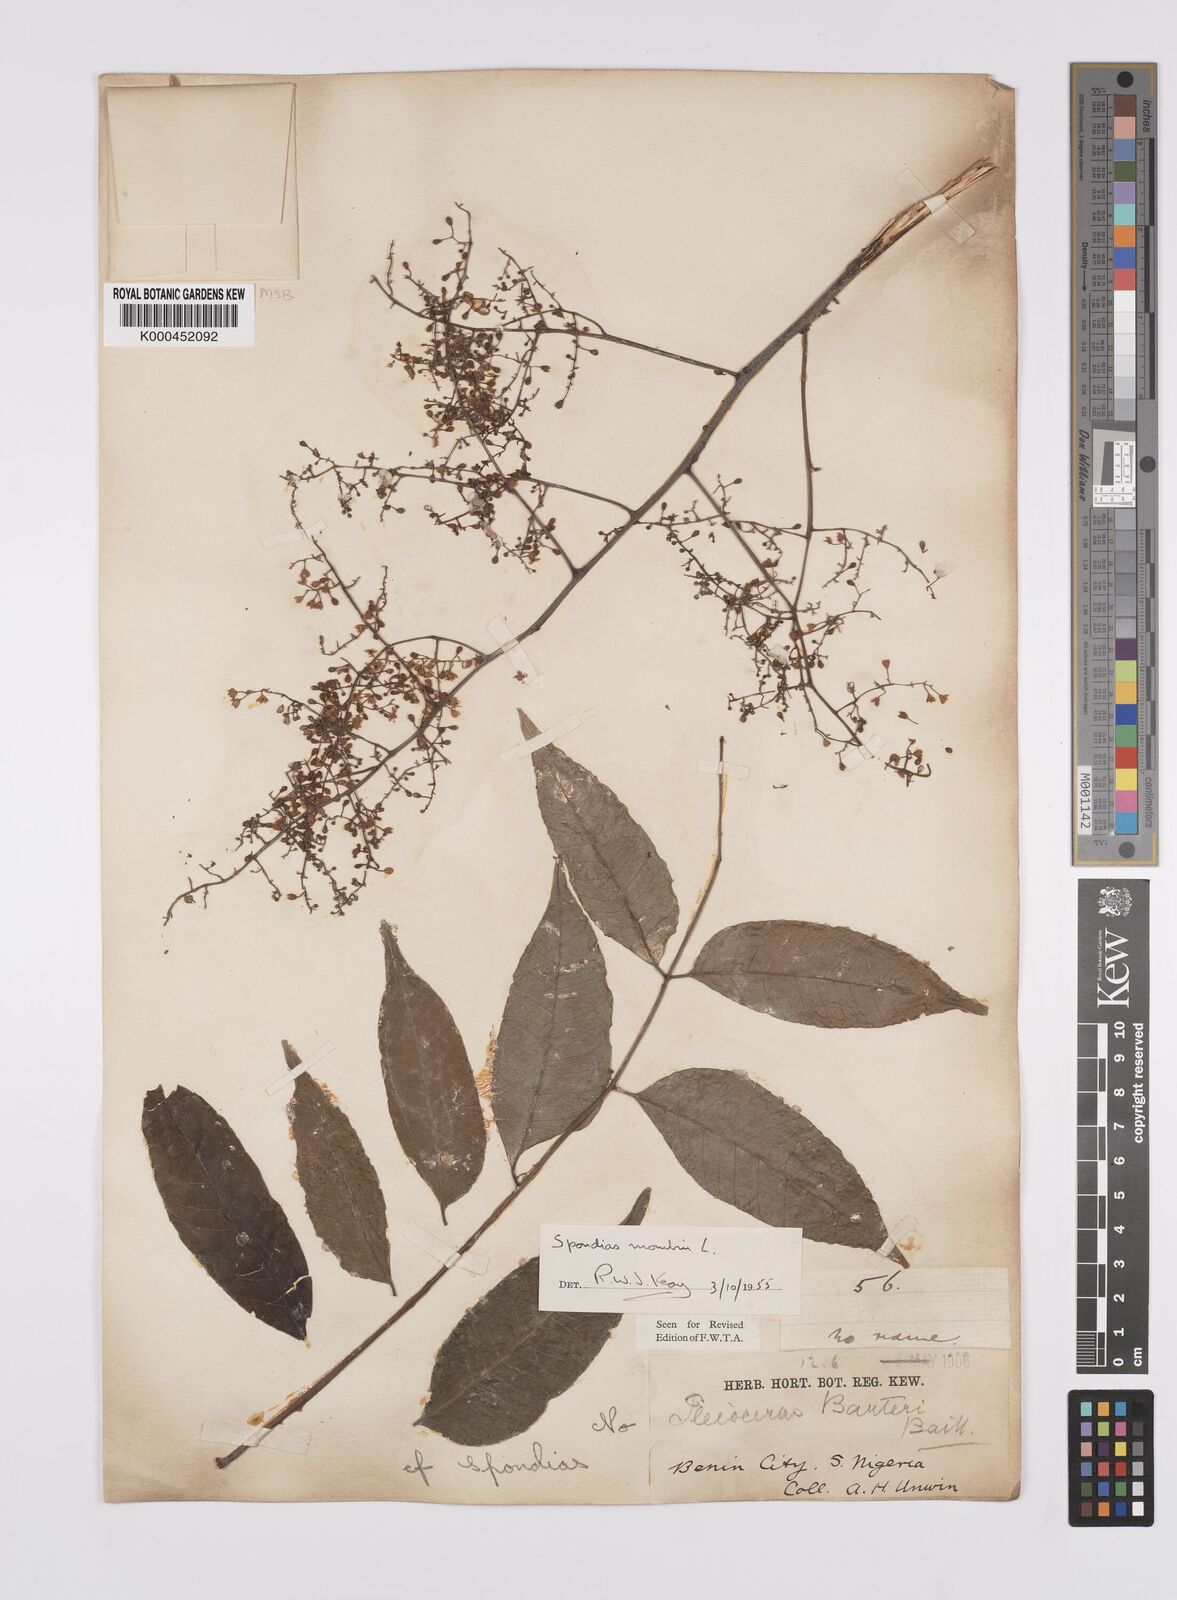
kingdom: Plantae
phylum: Tracheophyta
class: Magnoliopsida
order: Sapindales
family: Anacardiaceae
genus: Spondias
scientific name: Spondias mombin
